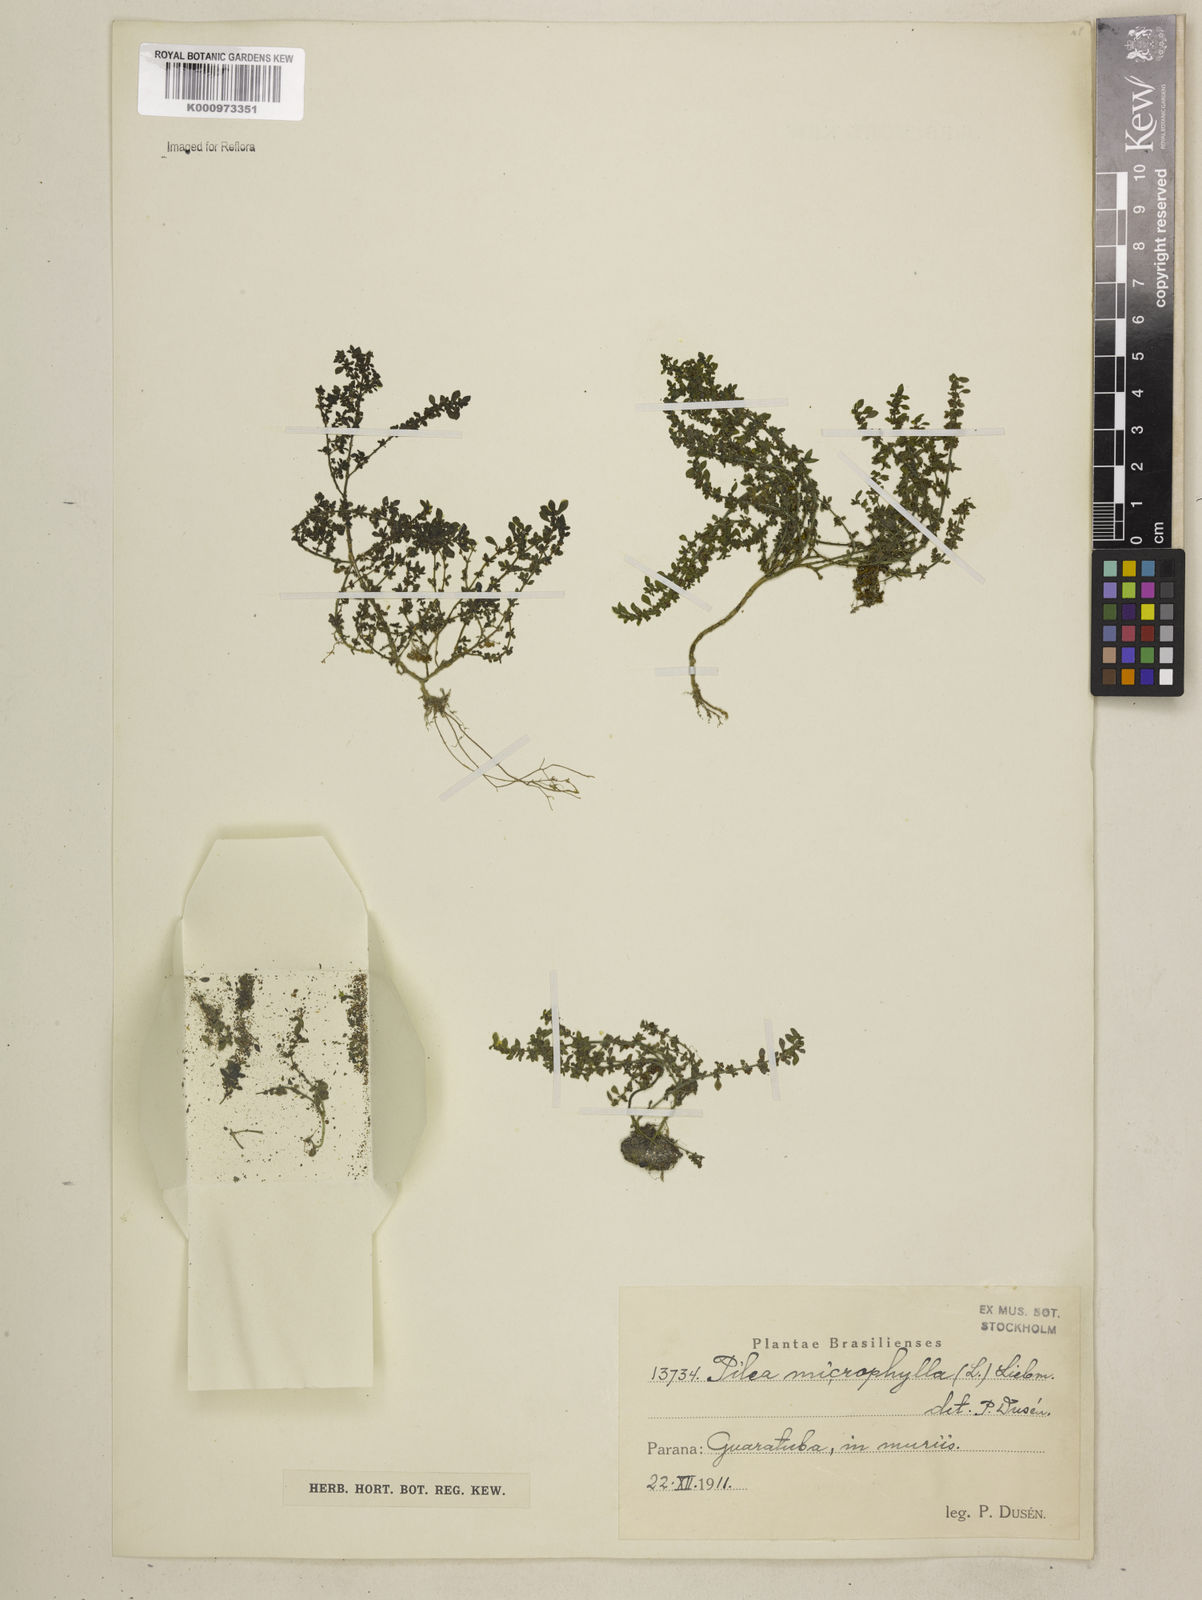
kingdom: Plantae
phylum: Tracheophyta
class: Magnoliopsida
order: Rosales
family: Urticaceae
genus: Pilea
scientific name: Pilea microphylla
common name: Artillery-plant
